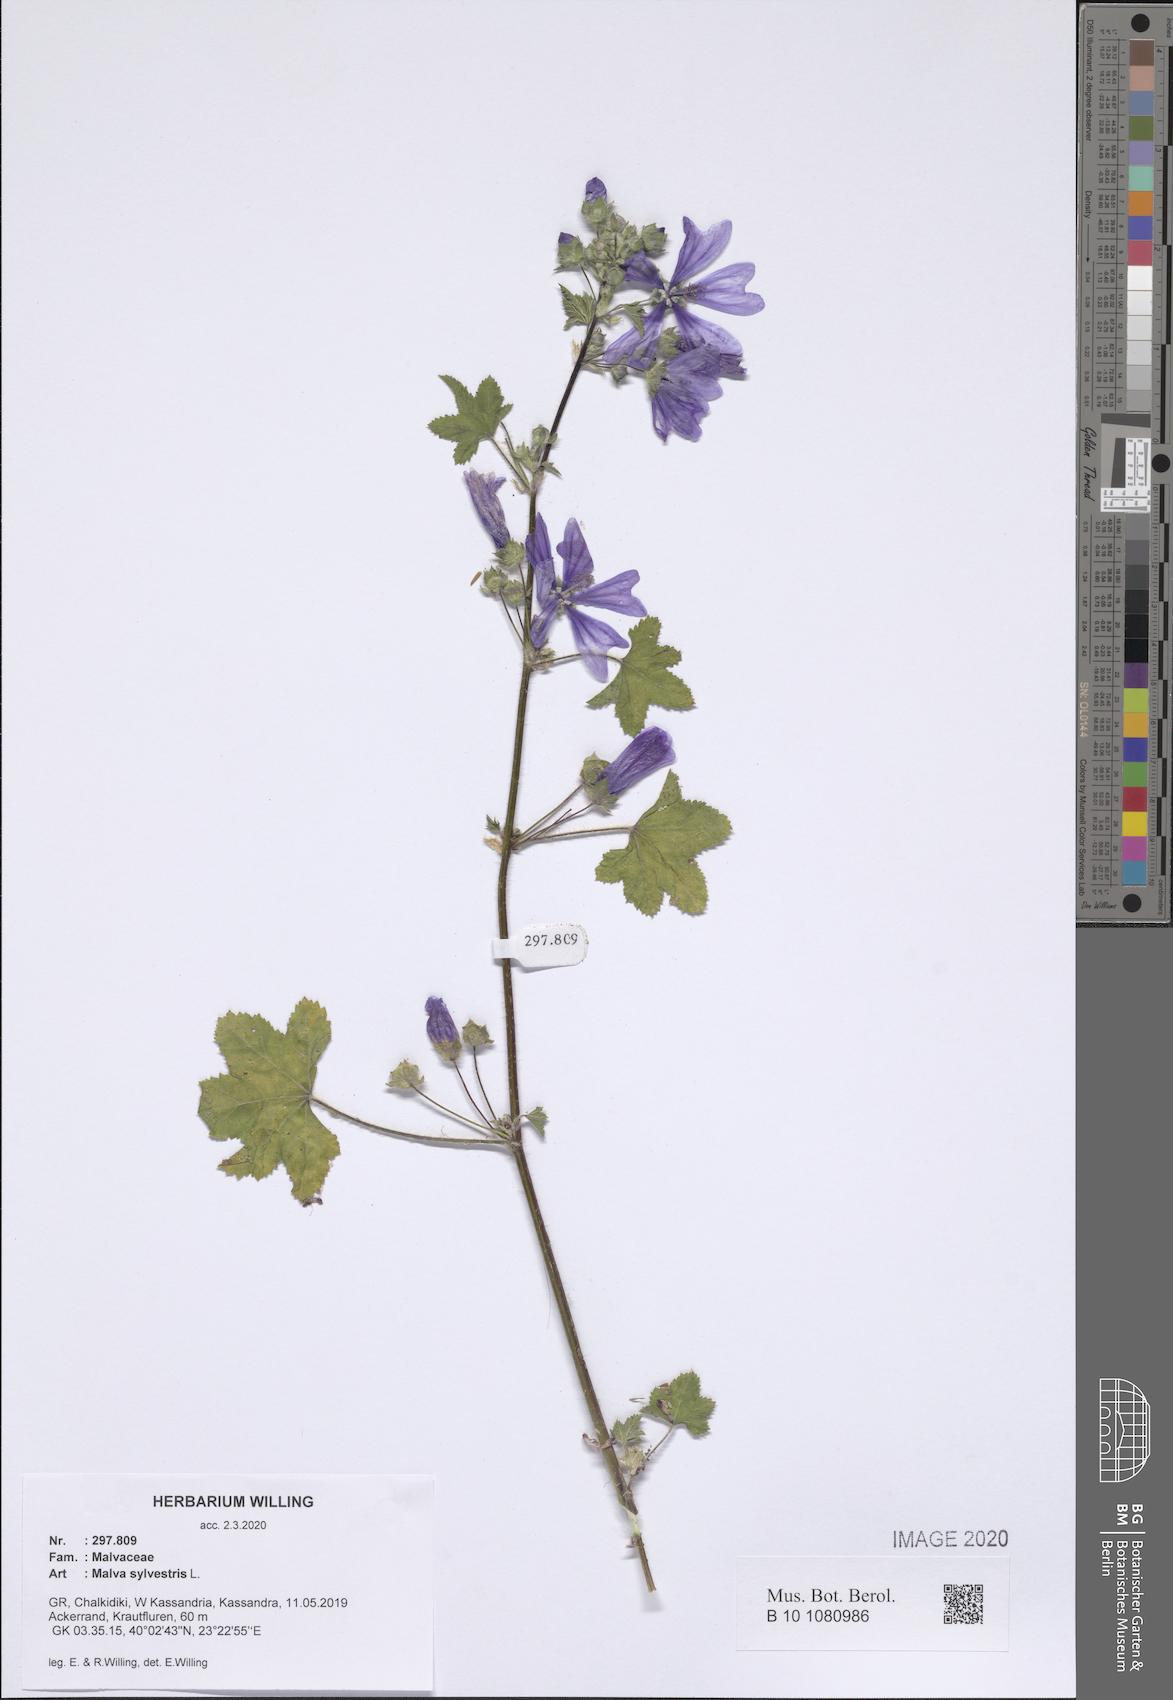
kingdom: Plantae
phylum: Tracheophyta
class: Magnoliopsida
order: Malvales
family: Malvaceae
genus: Malva
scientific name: Malva sylvestris
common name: Common mallow
